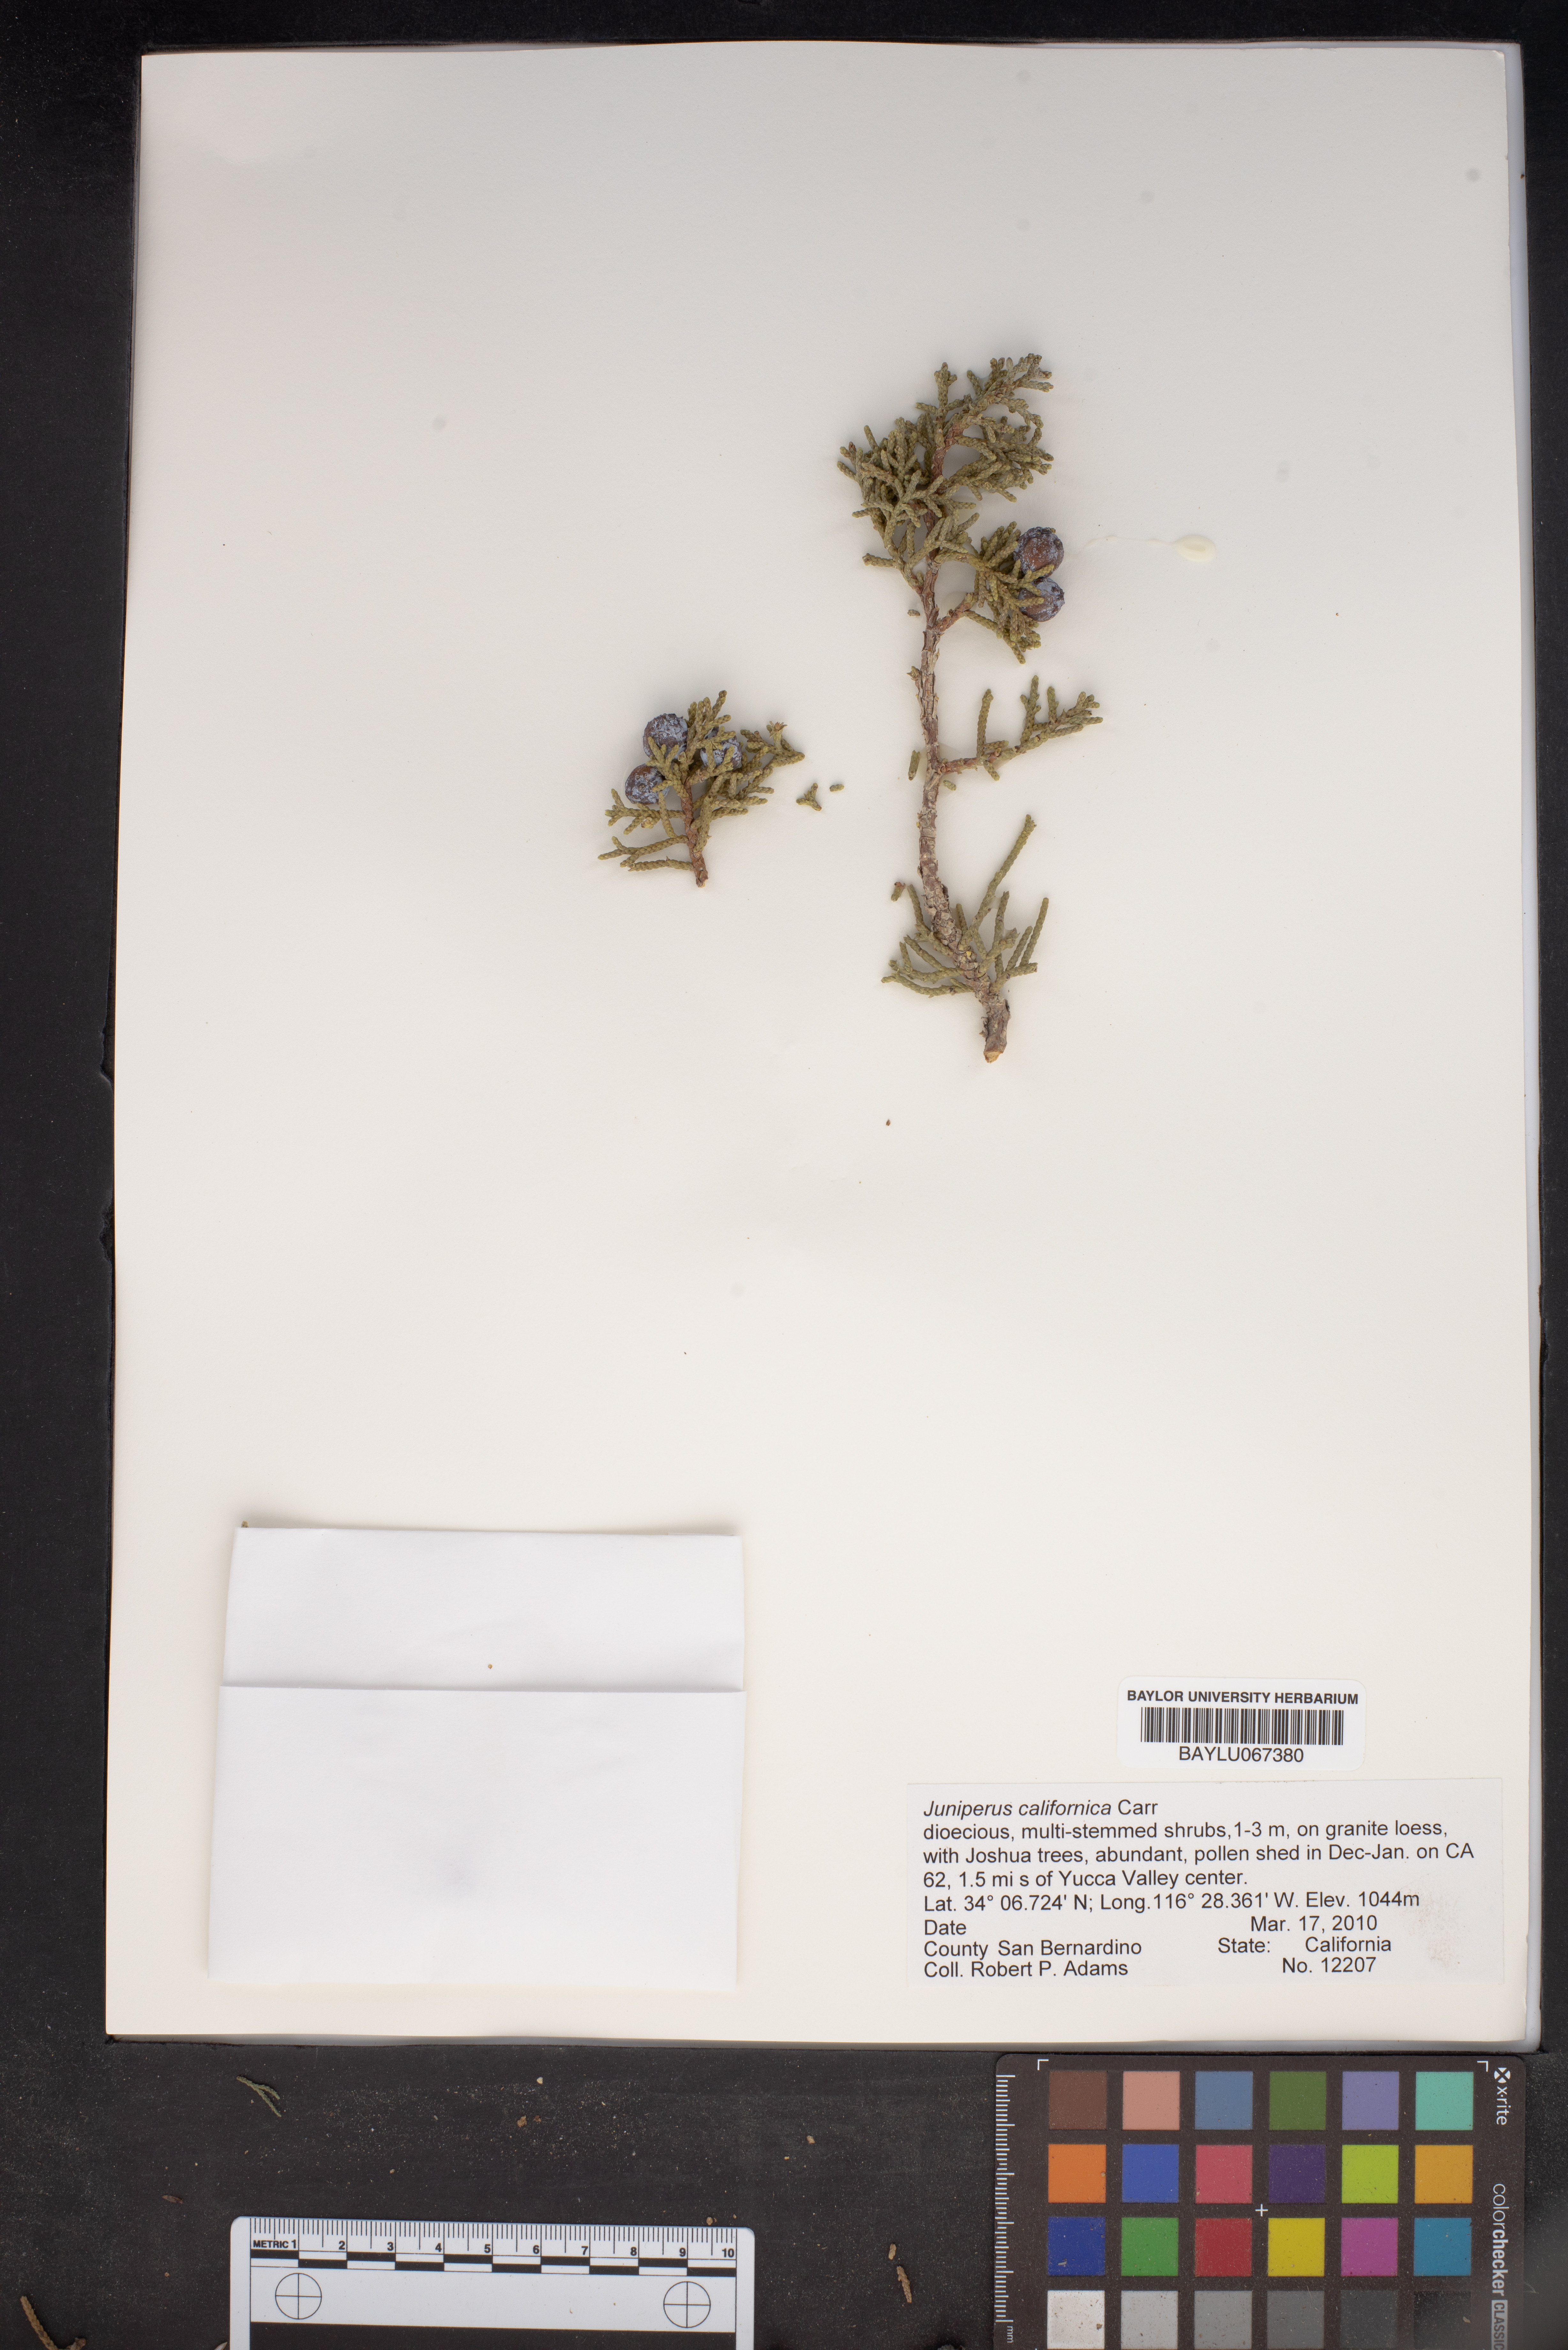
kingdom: Plantae
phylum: Tracheophyta
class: Pinopsida
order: Pinales
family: Cupressaceae
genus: Juniperus
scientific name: Juniperus californica
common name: California juniper
